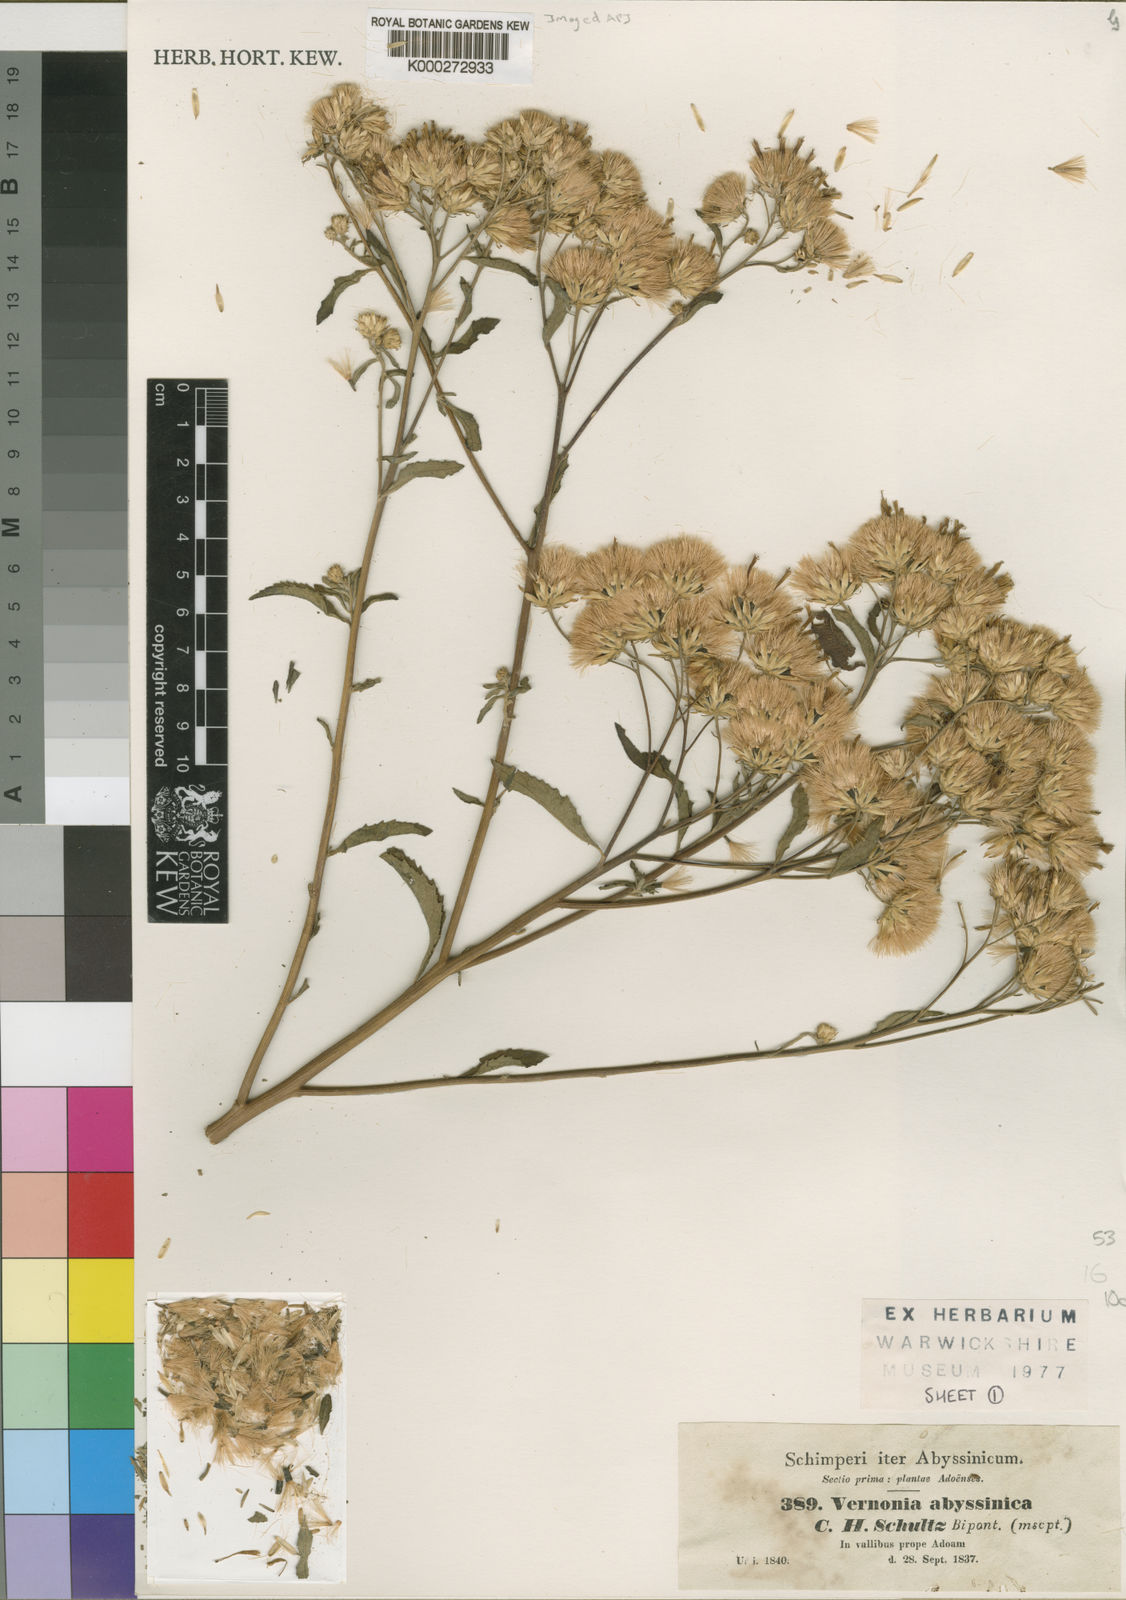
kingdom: Plantae
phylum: Tracheophyta
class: Magnoliopsida
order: Asterales
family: Asteraceae
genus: Nothovernonia
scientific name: Nothovernonia purpurea
